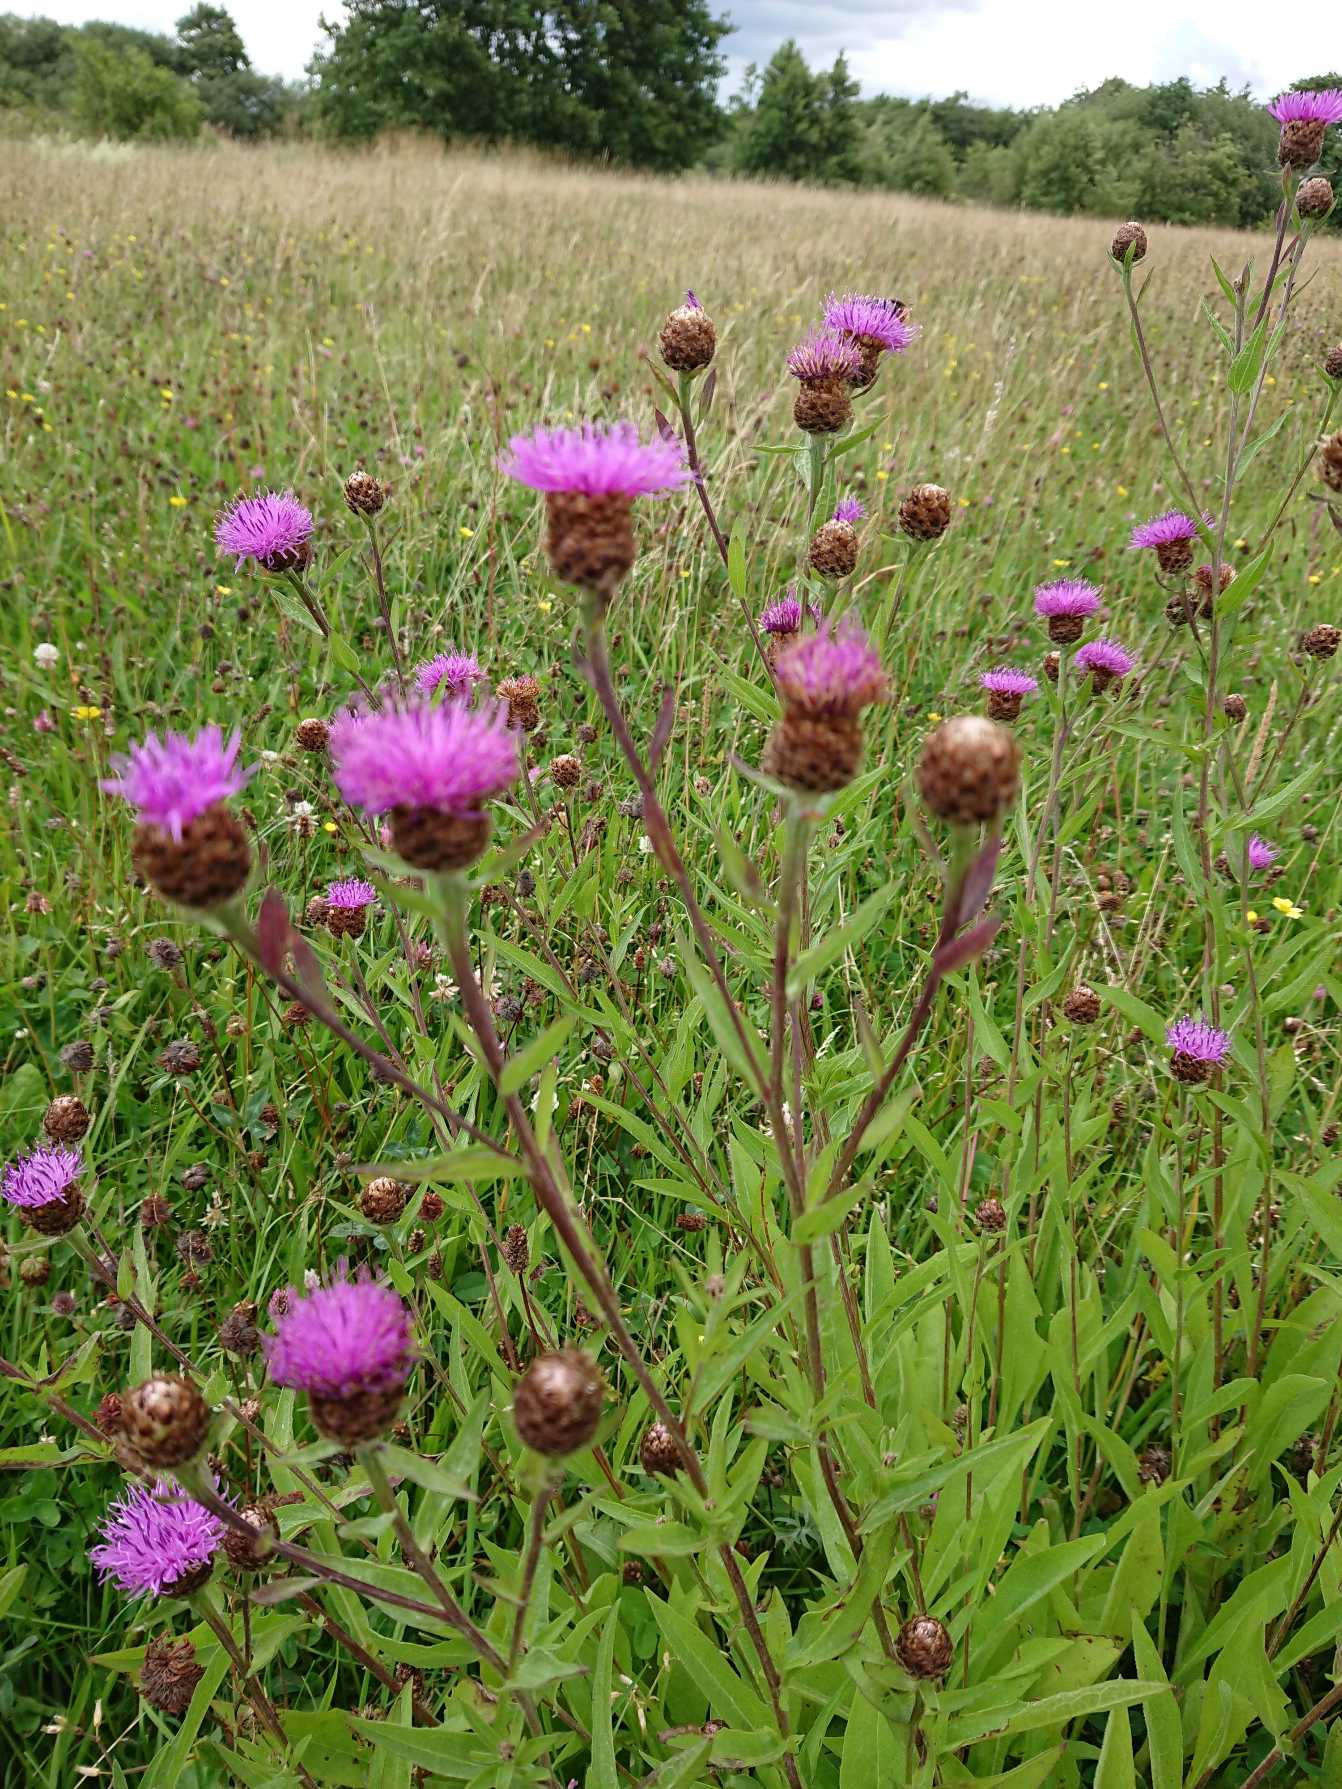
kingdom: Plantae
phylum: Tracheophyta
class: Magnoliopsida
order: Asterales
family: Asteraceae
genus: Centaurea
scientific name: Centaurea nigra
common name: Sorthoved-knopurt
